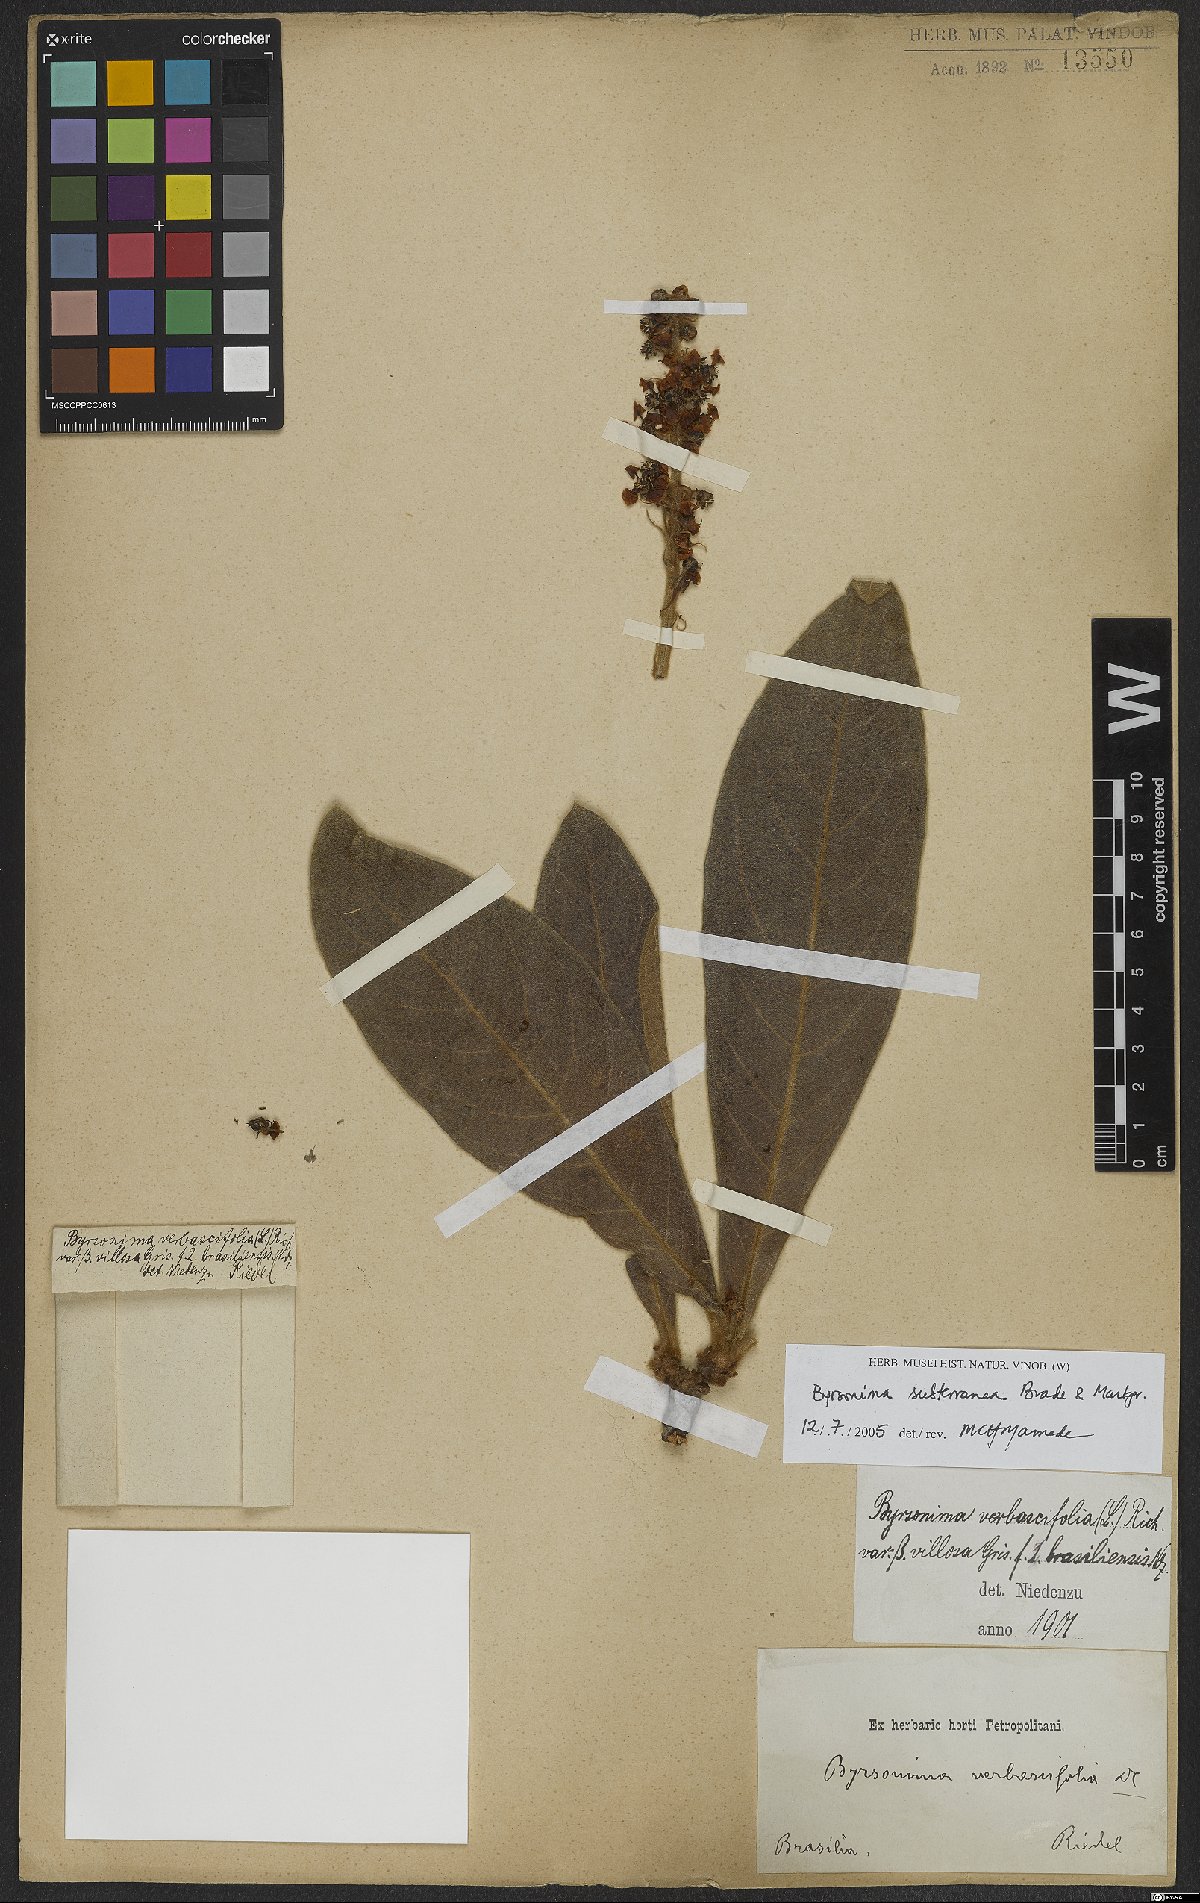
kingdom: Plantae
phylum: Tracheophyta
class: Magnoliopsida
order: Malpighiales
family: Malpighiaceae
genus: Byrsonima
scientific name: Byrsonima subterranea
